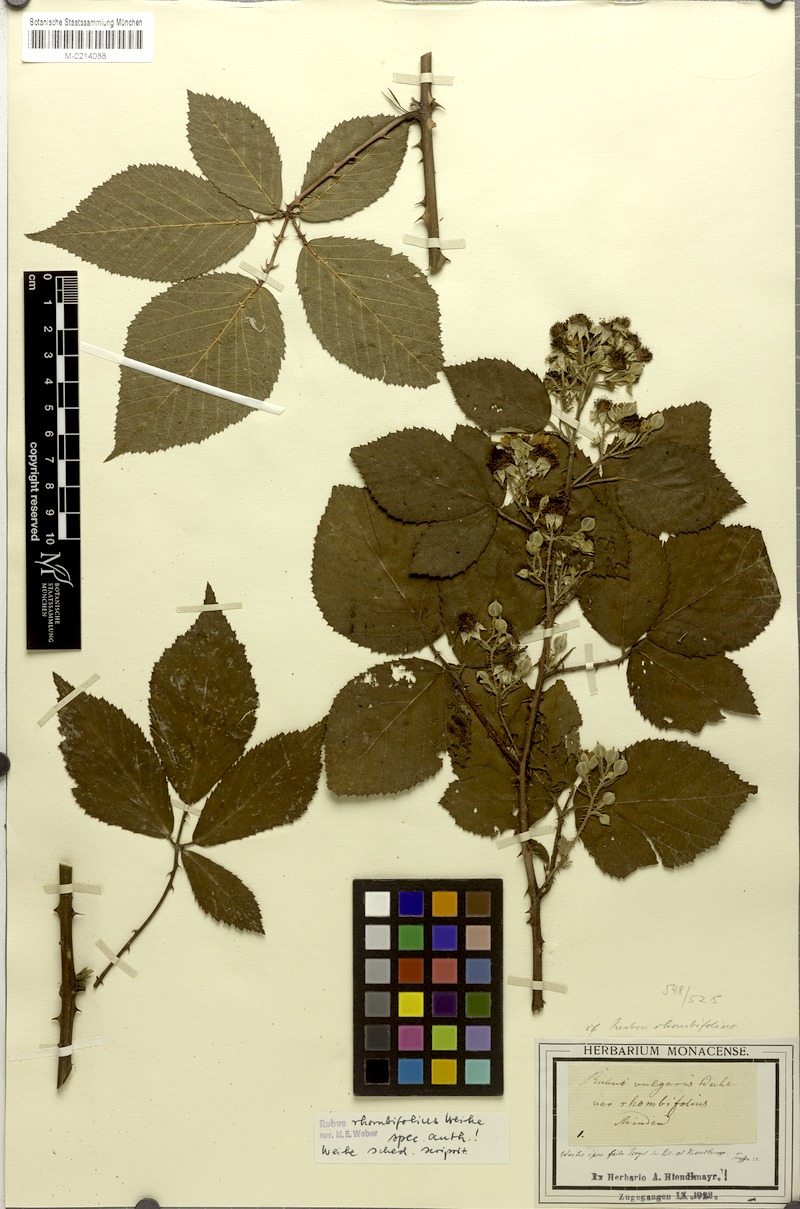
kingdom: Plantae
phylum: Tracheophyta
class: Magnoliopsida
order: Rosales
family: Rosaceae
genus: Rubus
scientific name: Rubus rhombifolius
